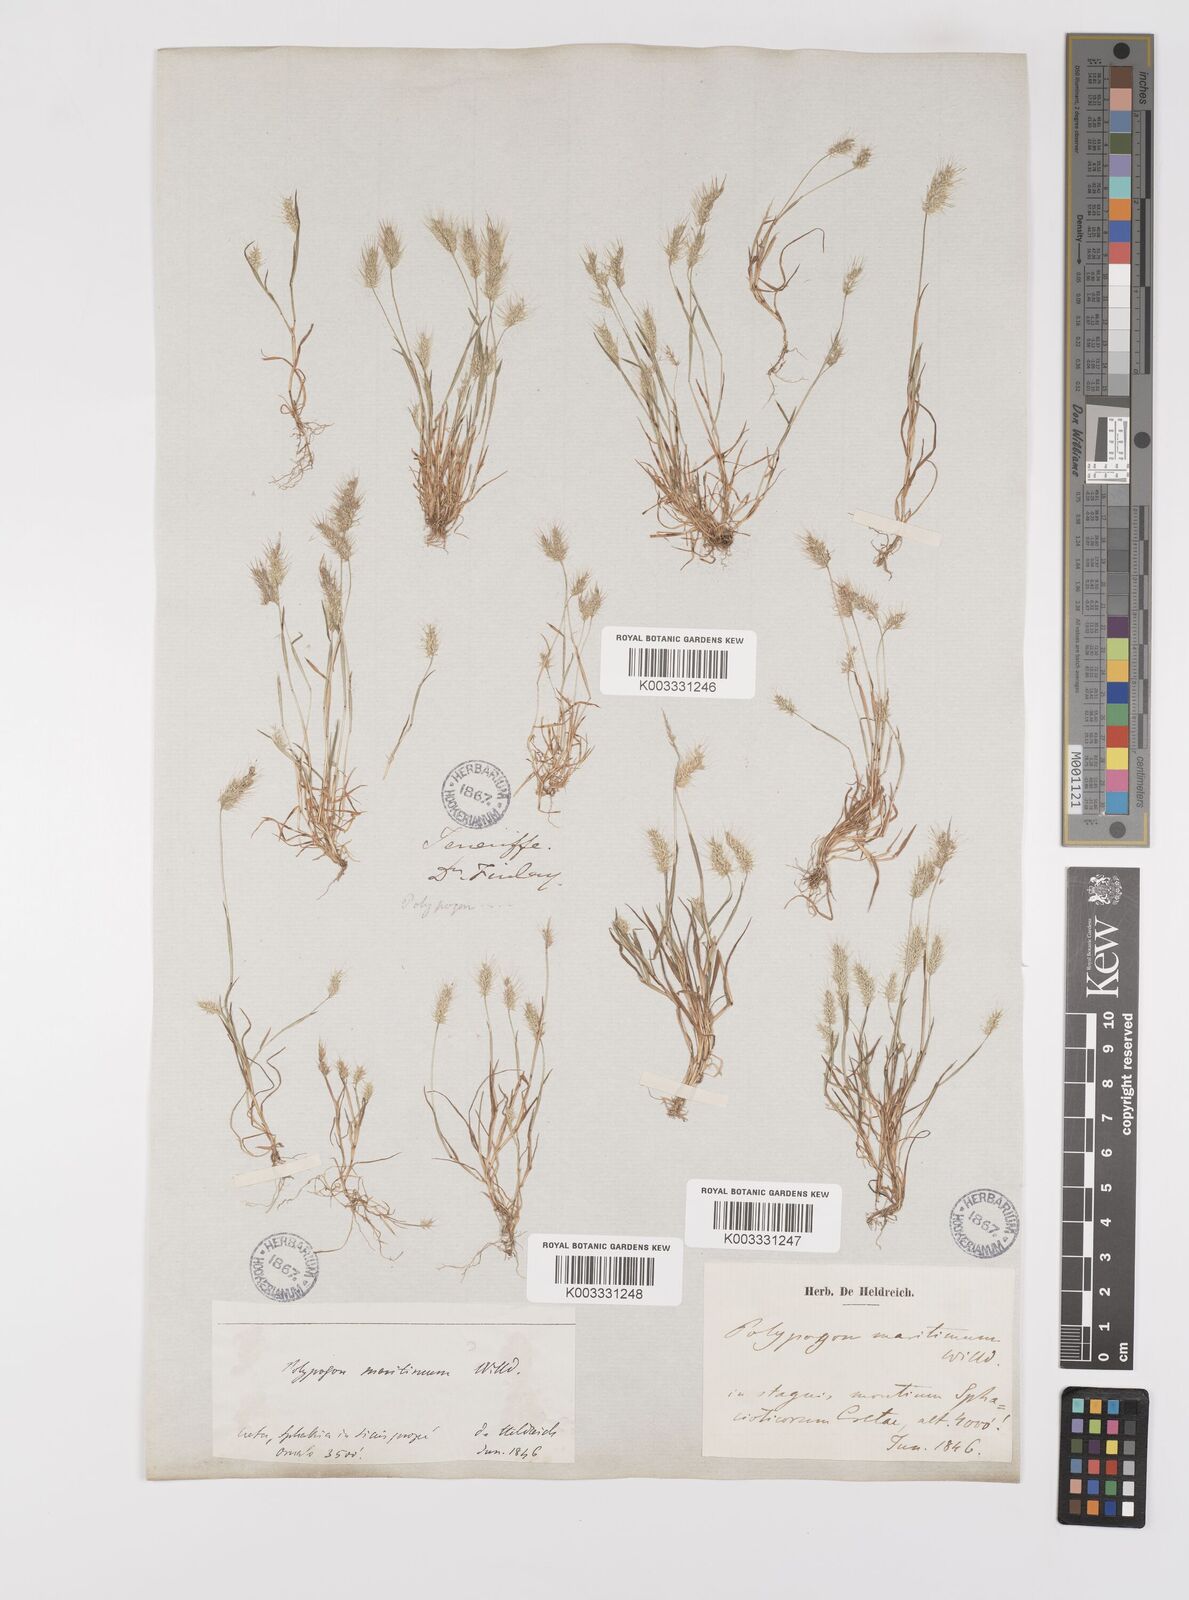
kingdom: Plantae
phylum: Tracheophyta
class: Liliopsida
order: Poales
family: Poaceae
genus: Polypogon
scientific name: Polypogon maritimus
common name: Mediterranean rabbitsfoot grass
